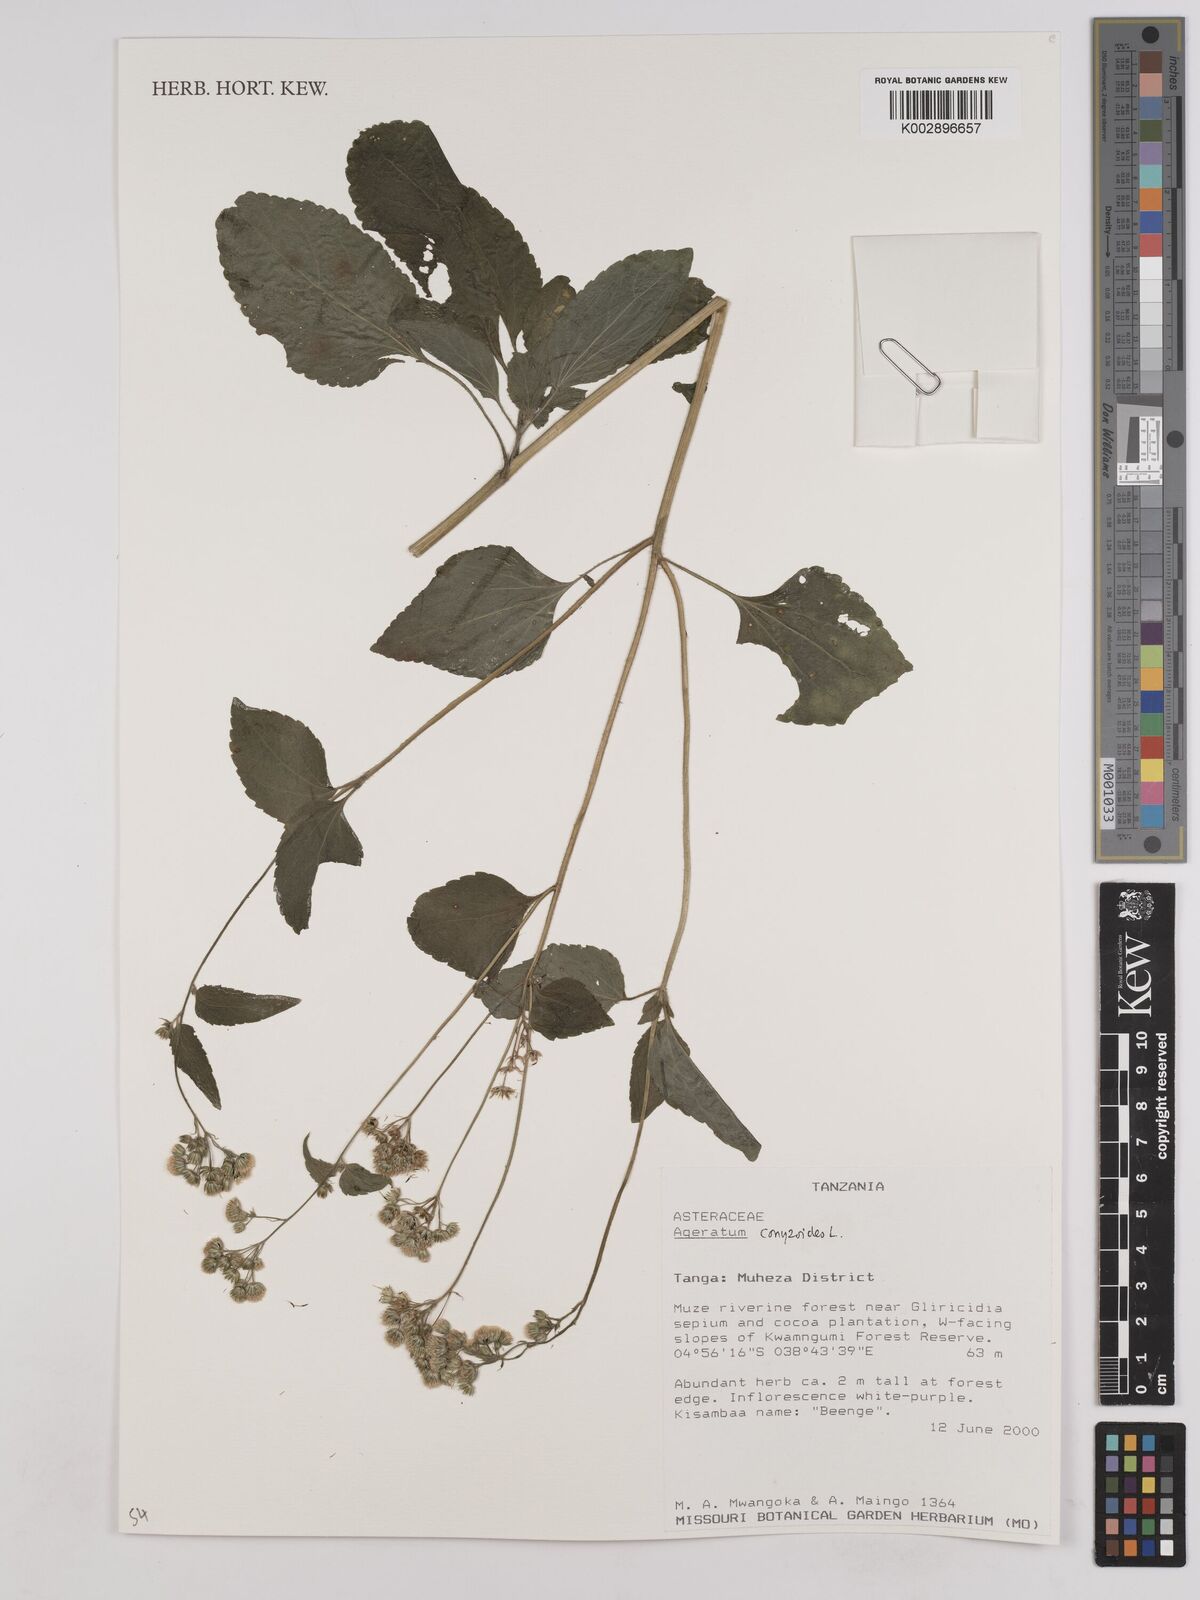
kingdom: Plantae
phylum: Tracheophyta
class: Magnoliopsida
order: Asterales
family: Asteraceae
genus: Ageratum
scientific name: Ageratum conyzoides
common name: Tropical whiteweed
